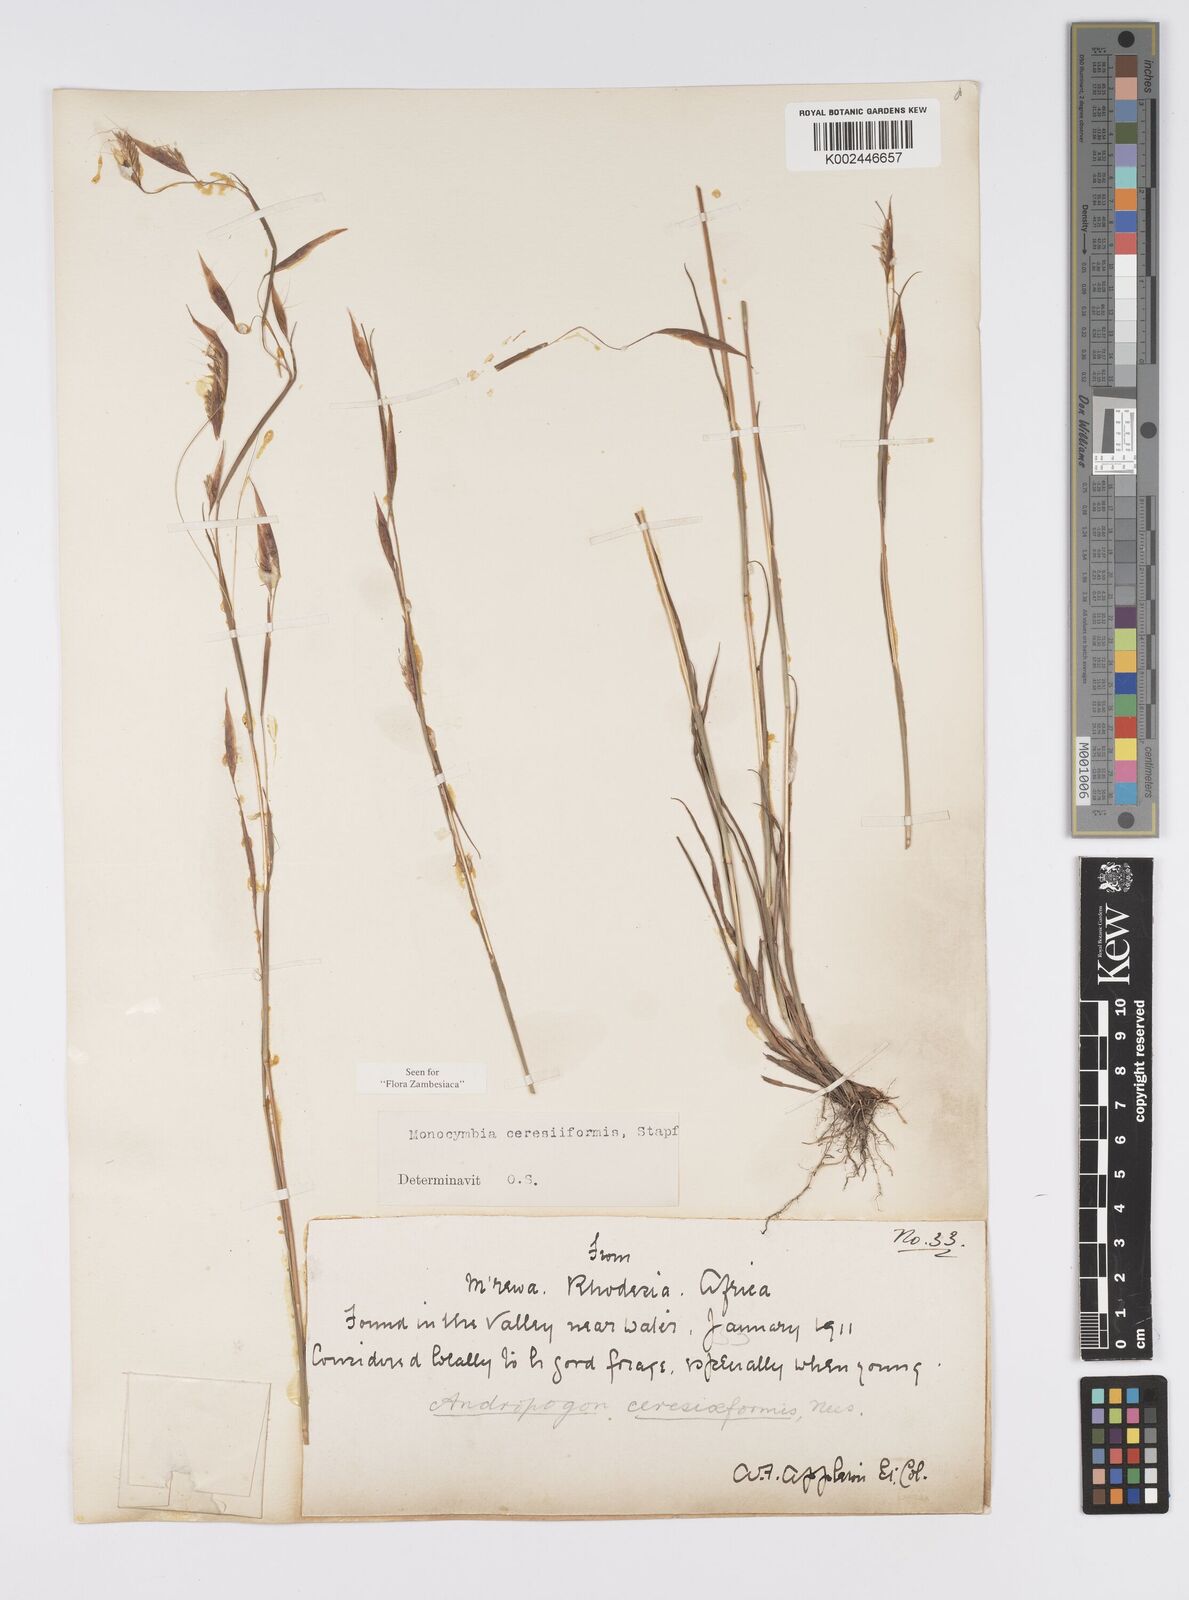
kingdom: Plantae
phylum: Tracheophyta
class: Liliopsida
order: Poales
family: Poaceae
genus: Monocymbium
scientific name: Monocymbium ceresiiforme
